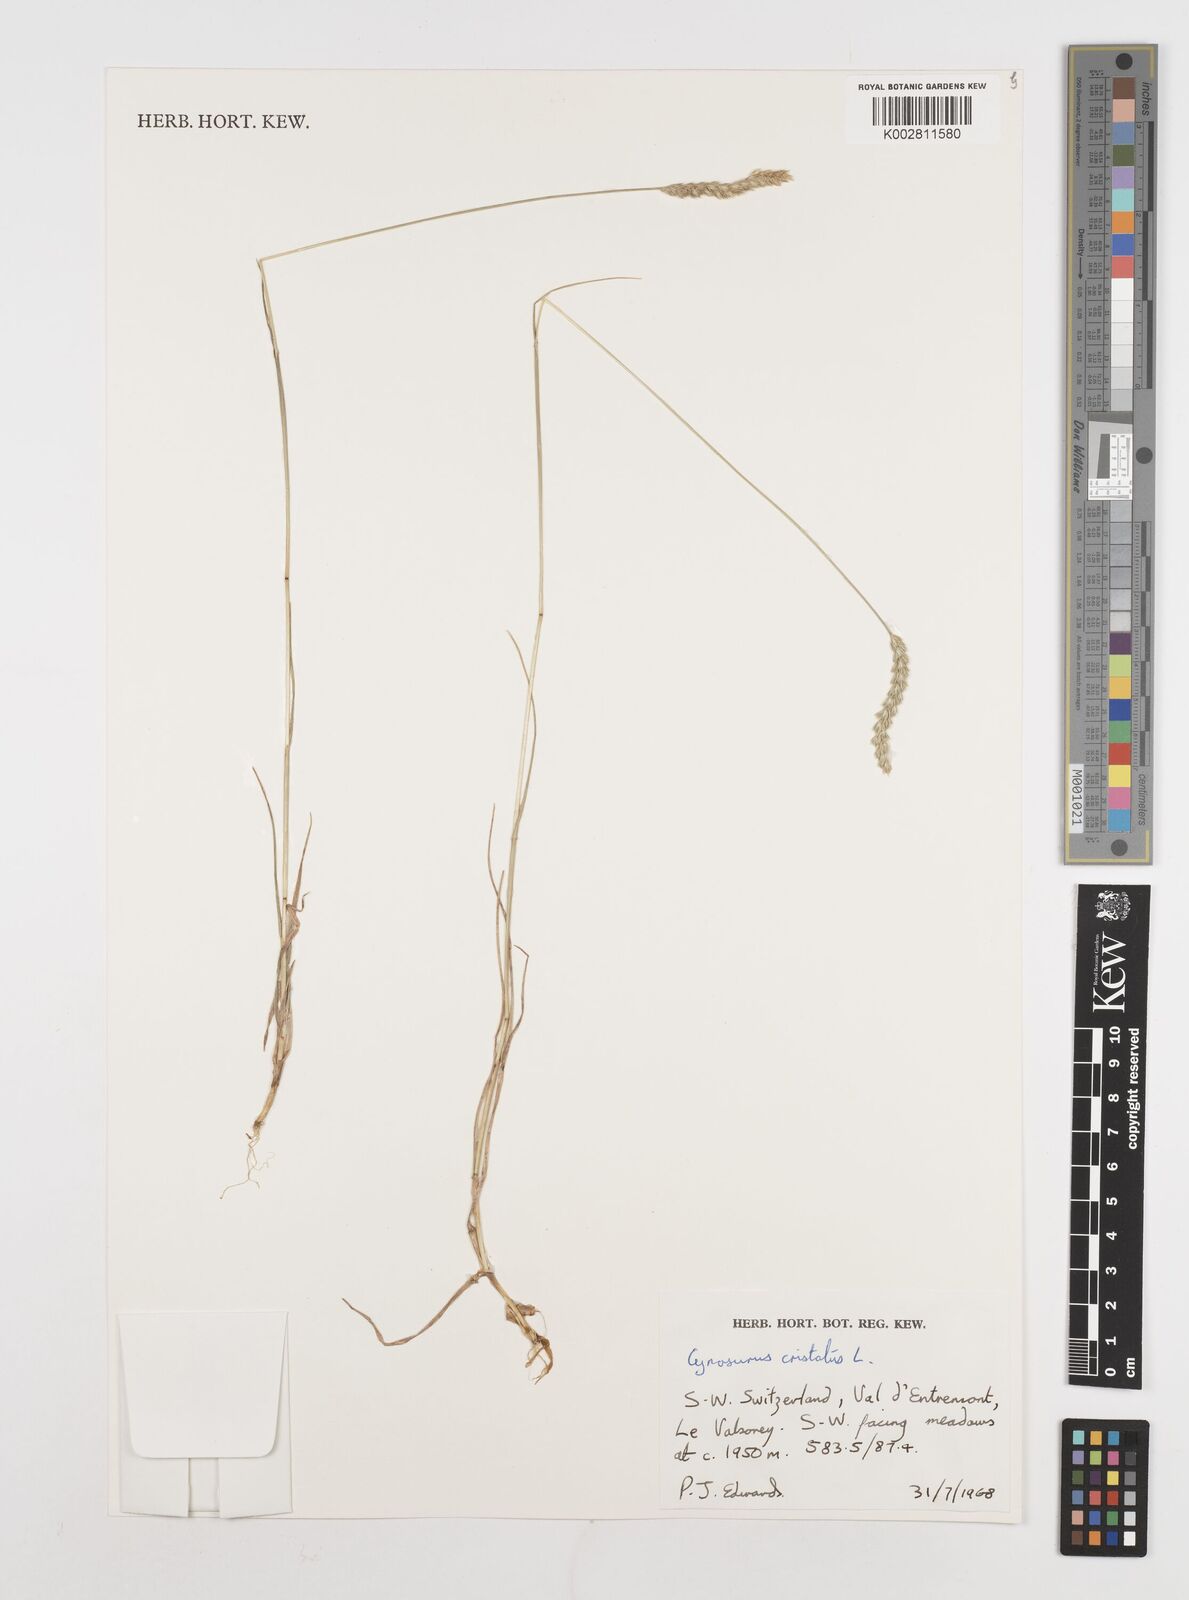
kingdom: Plantae
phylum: Tracheophyta
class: Liliopsida
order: Poales
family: Poaceae
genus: Cynosurus
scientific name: Cynosurus cristatus
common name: Crested dog's-tail
